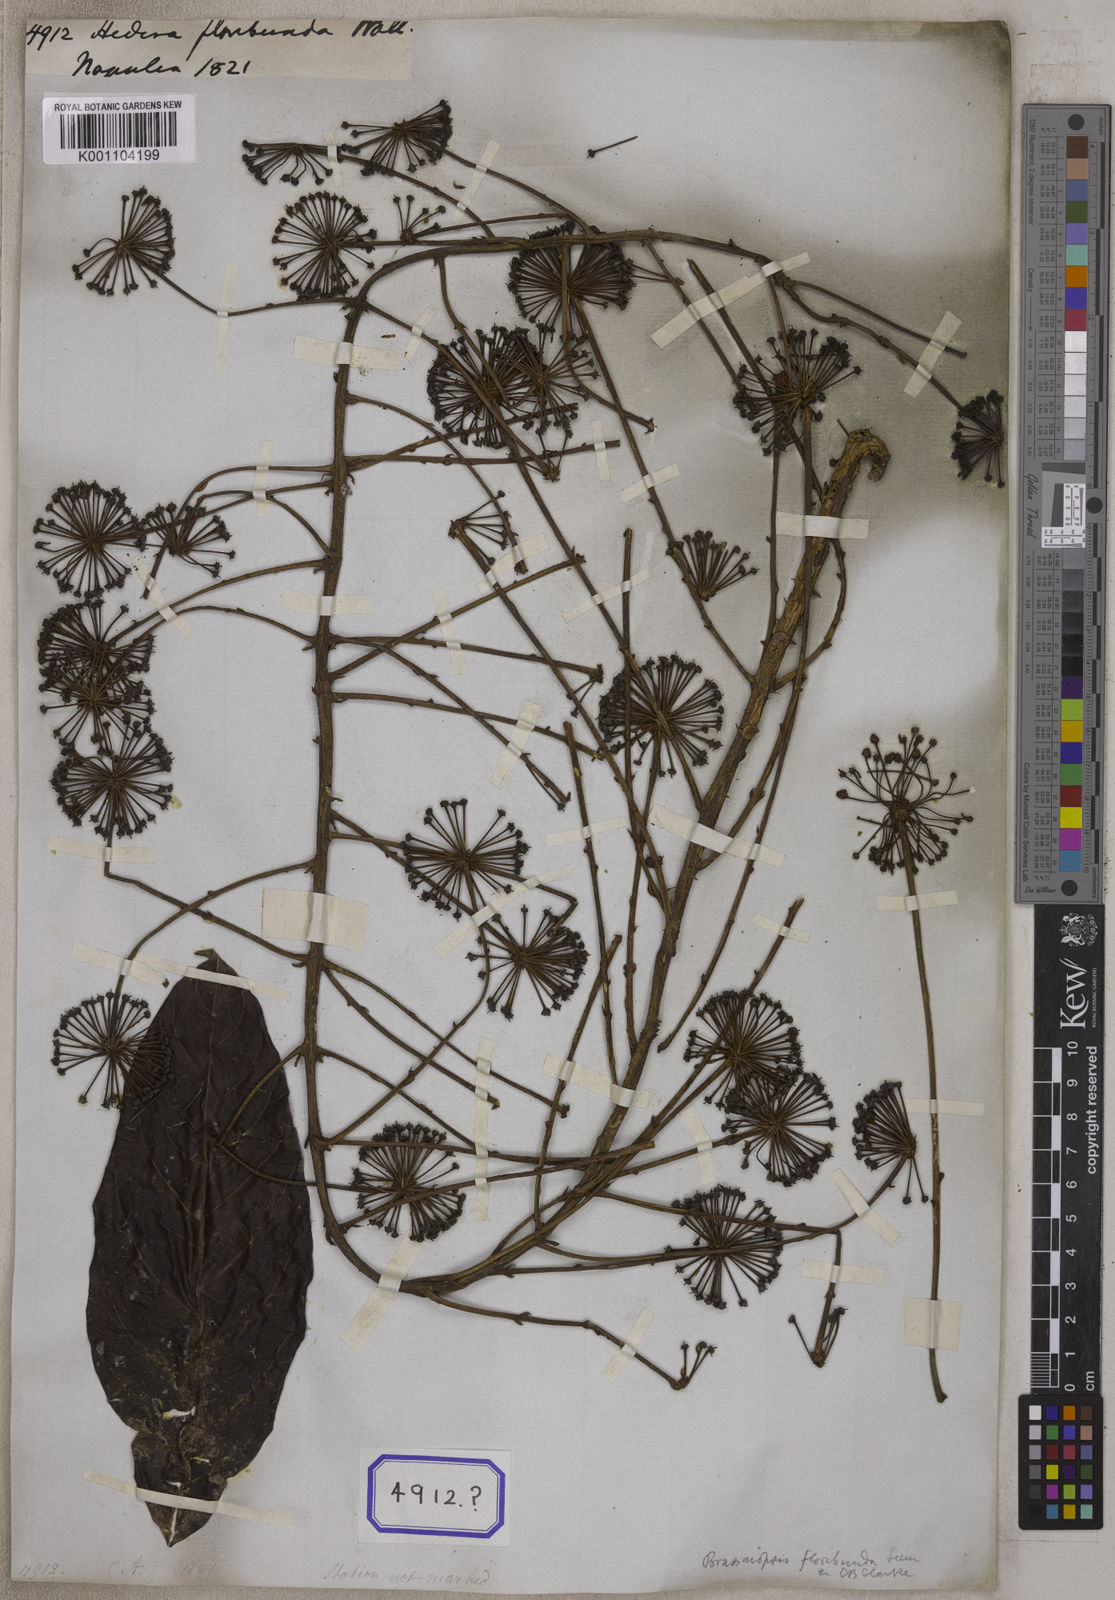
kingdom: Plantae
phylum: Tracheophyta
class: Magnoliopsida
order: Apiales
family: Araliaceae
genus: Hedera
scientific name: Hedera
